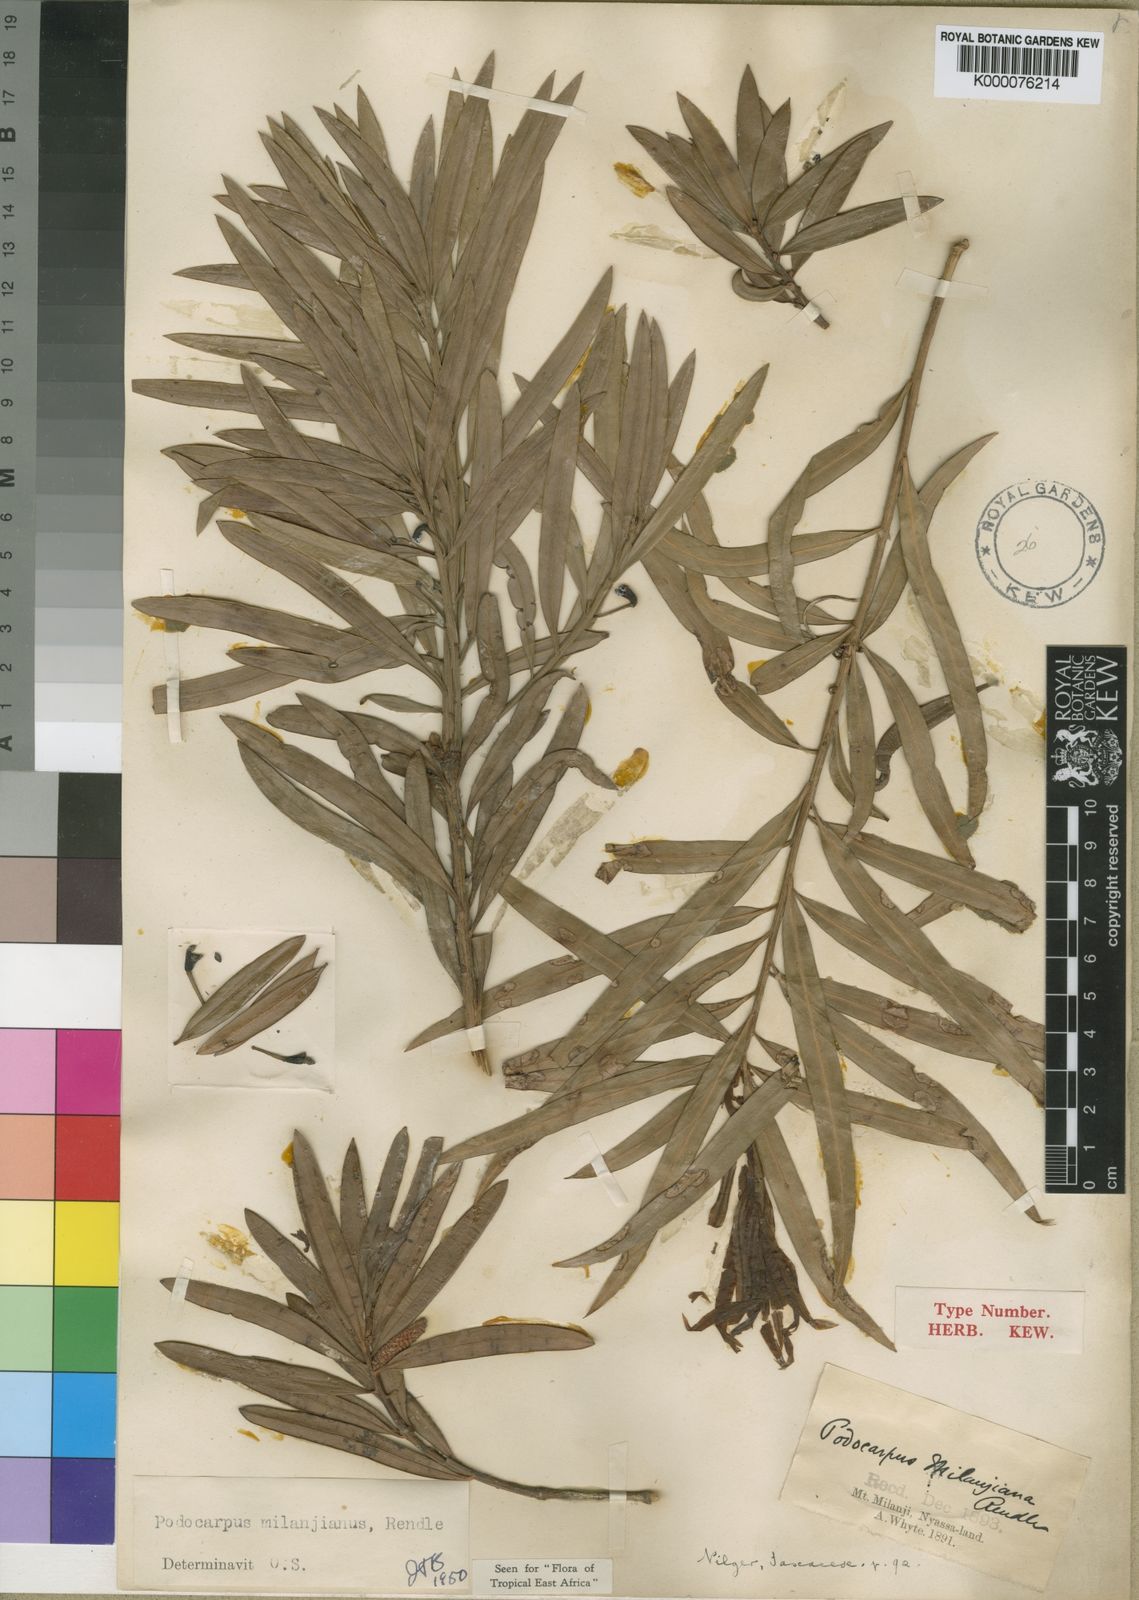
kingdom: Plantae
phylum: Tracheophyta
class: Pinopsida
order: Pinales
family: Podocarpaceae
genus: Podocarpus
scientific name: Podocarpus milanjianus
